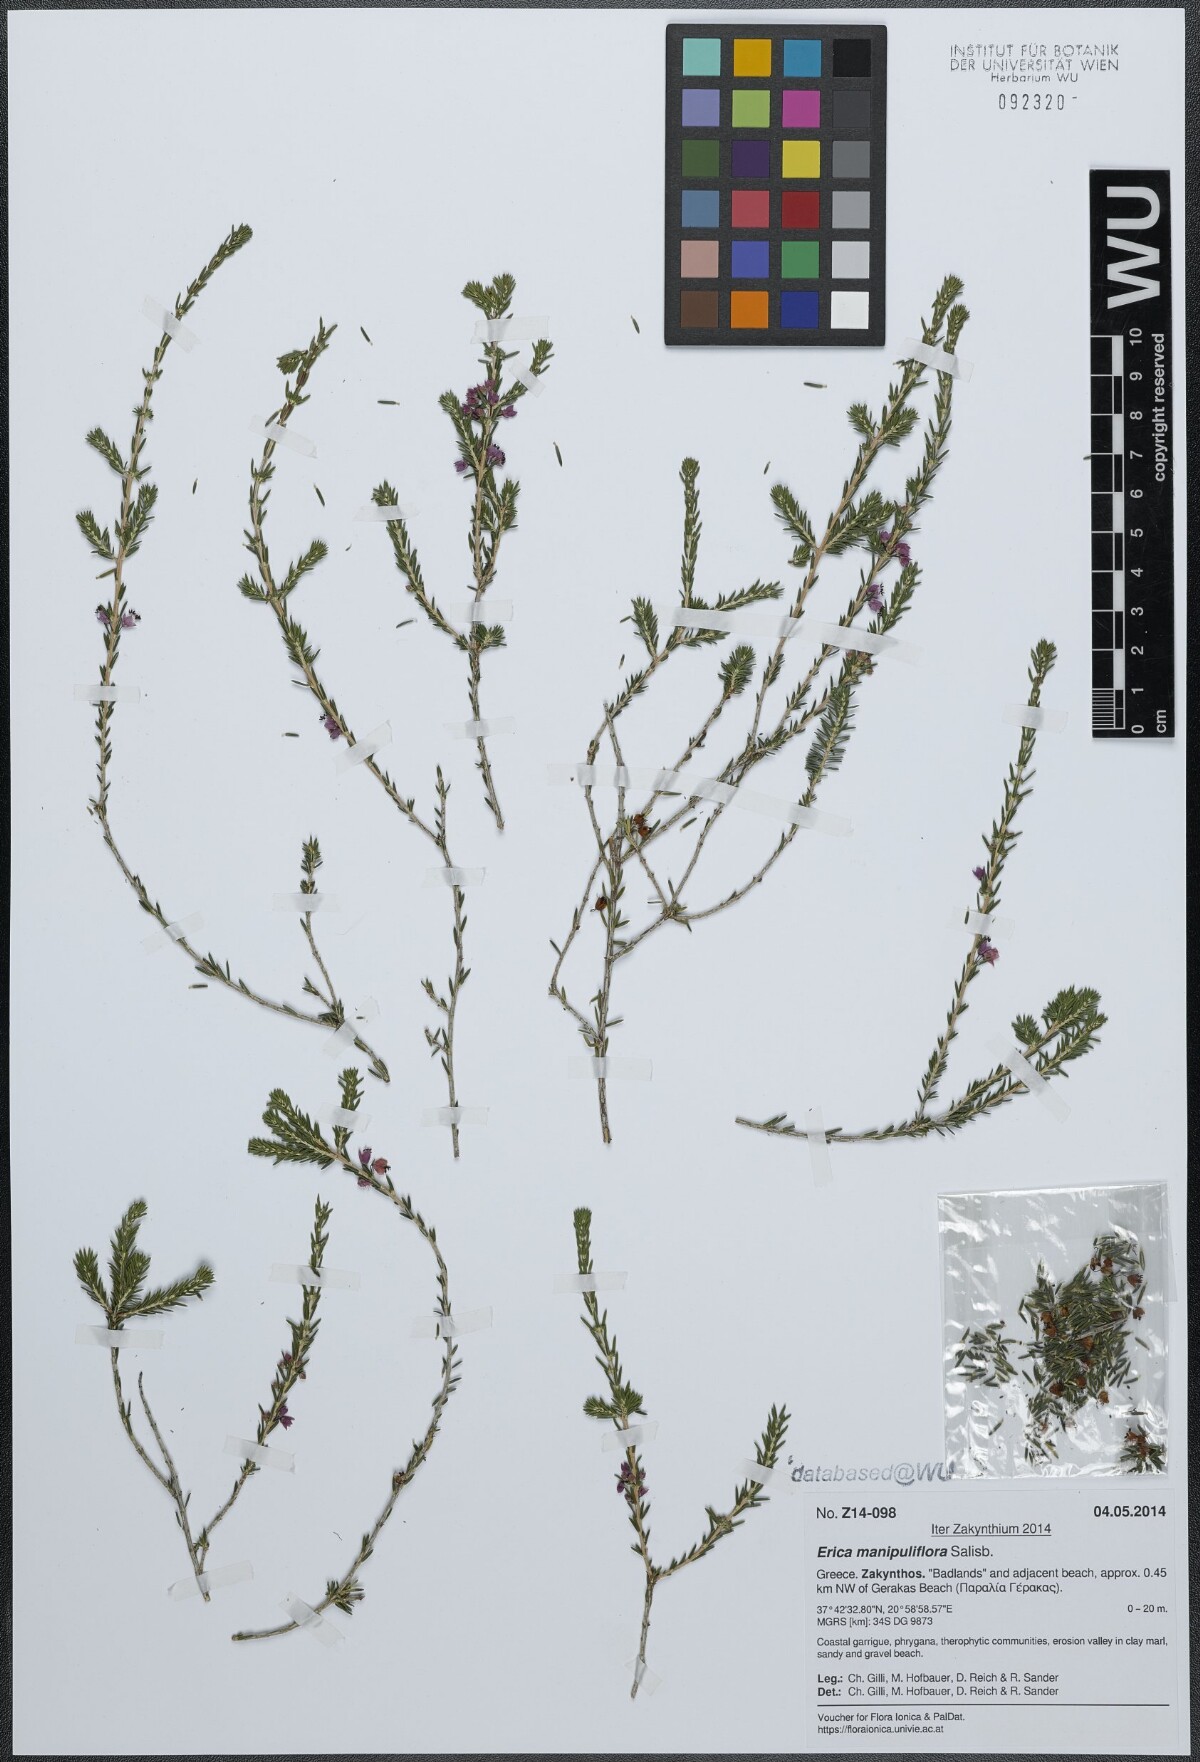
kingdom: Plantae
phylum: Tracheophyta
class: Magnoliopsida
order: Ericales
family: Ericaceae
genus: Erica
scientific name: Erica manipuliflora
